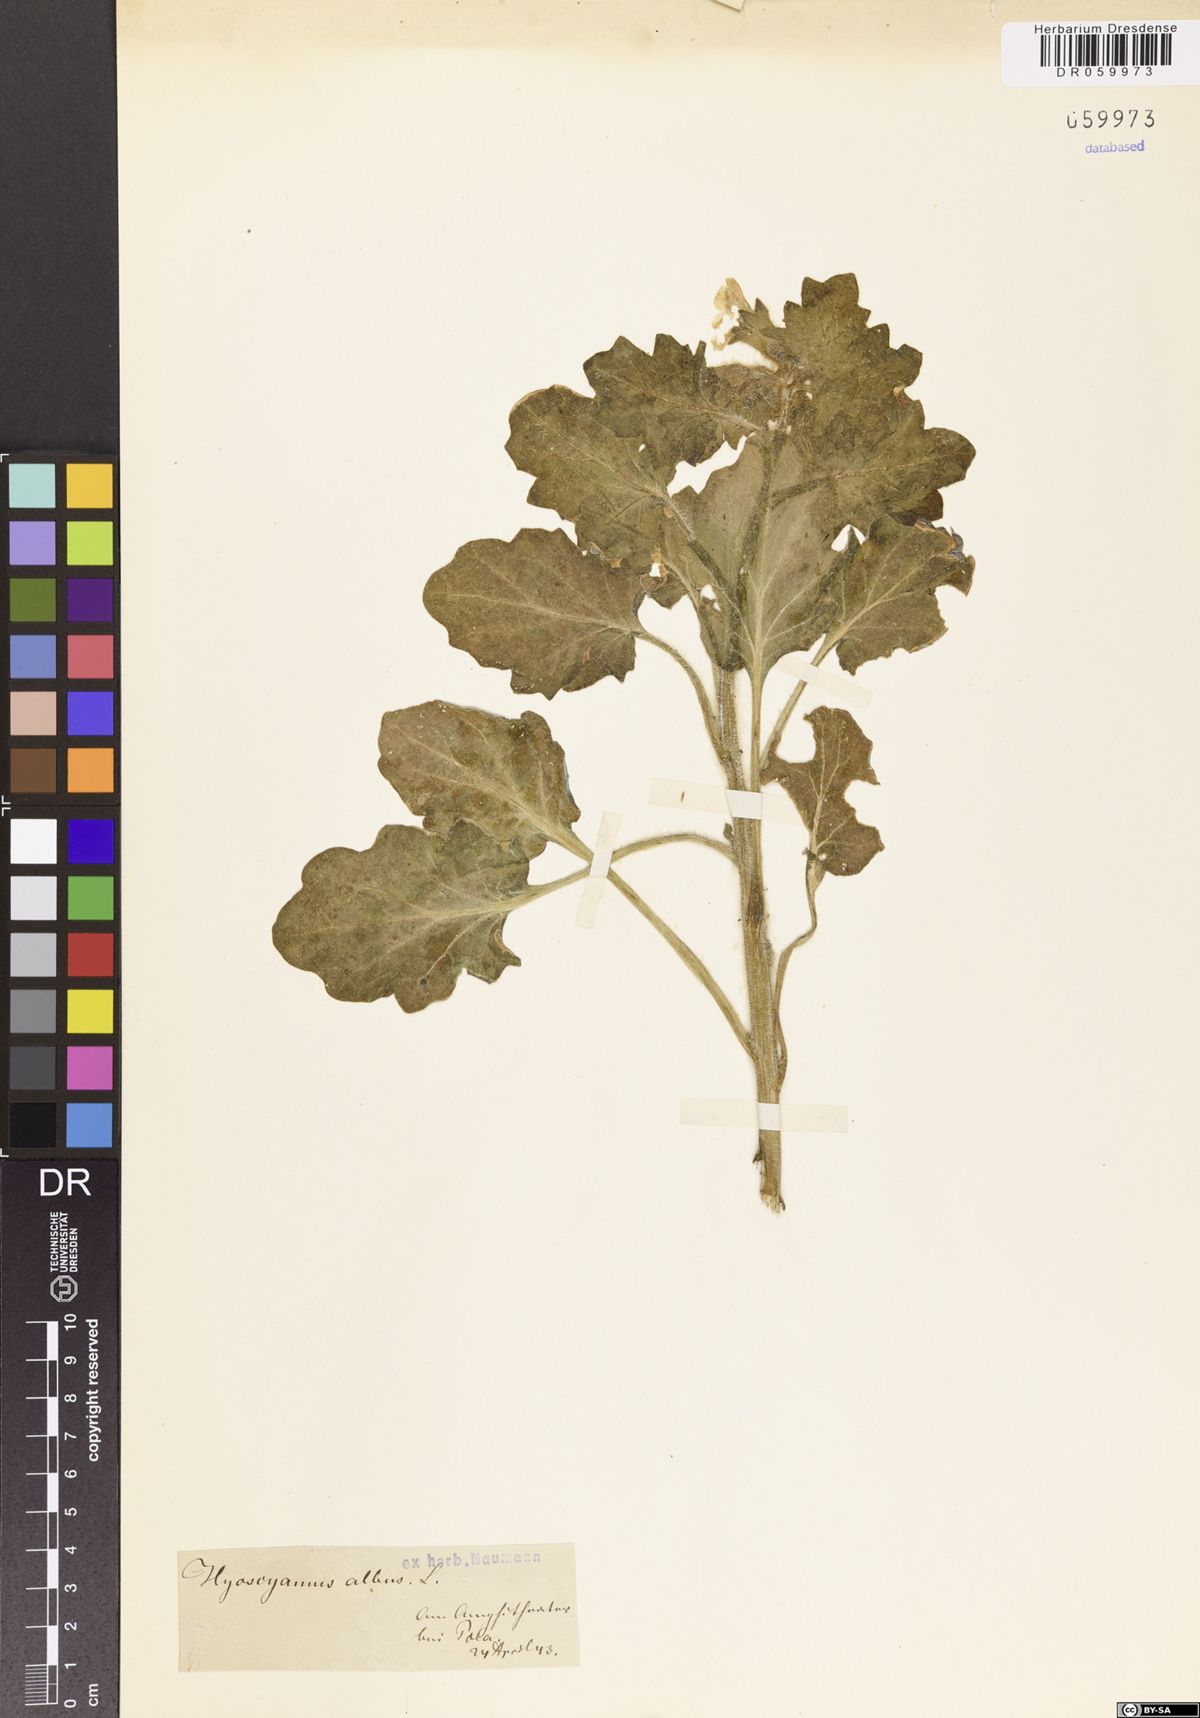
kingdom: Plantae
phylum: Tracheophyta
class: Magnoliopsida
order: Solanales
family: Solanaceae
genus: Hyoscyamus
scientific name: Hyoscyamus albus
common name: White henbane
